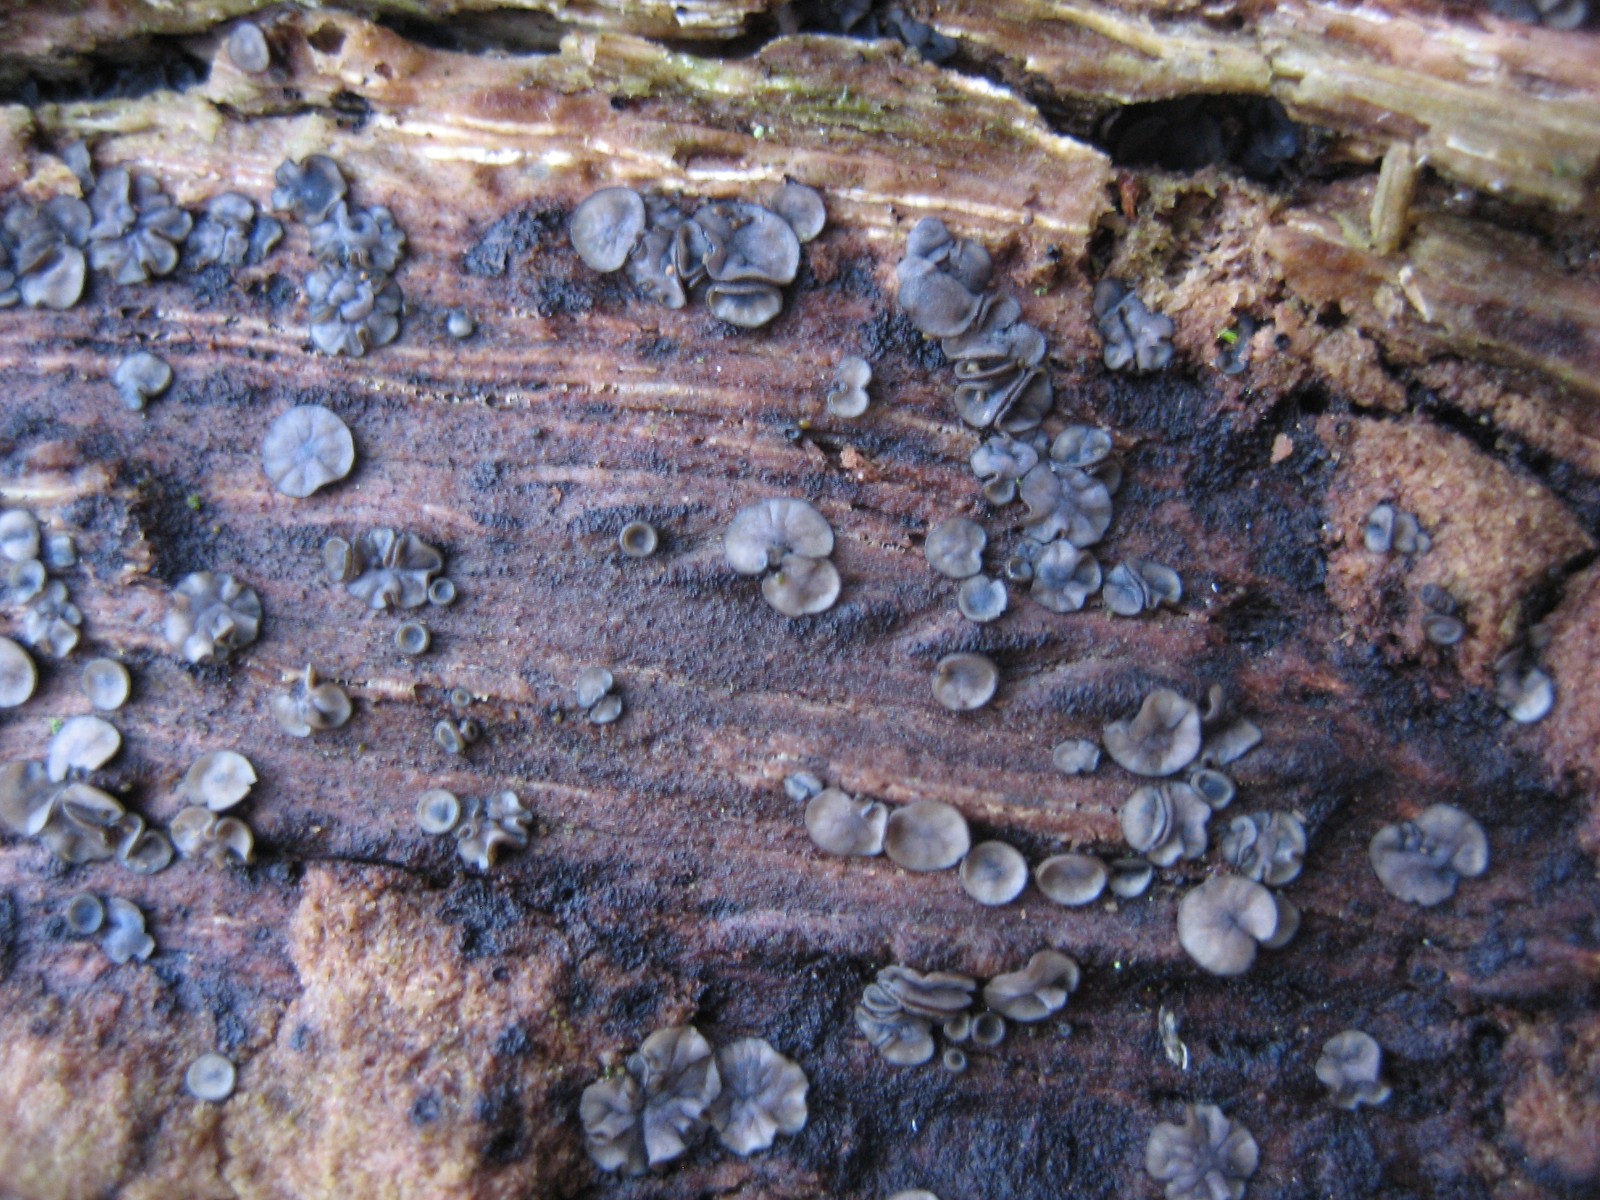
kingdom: Fungi
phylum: Ascomycota
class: Leotiomycetes
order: Helotiales
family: Mollisiaceae
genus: Mollisia
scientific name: Mollisia
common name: gråskive
